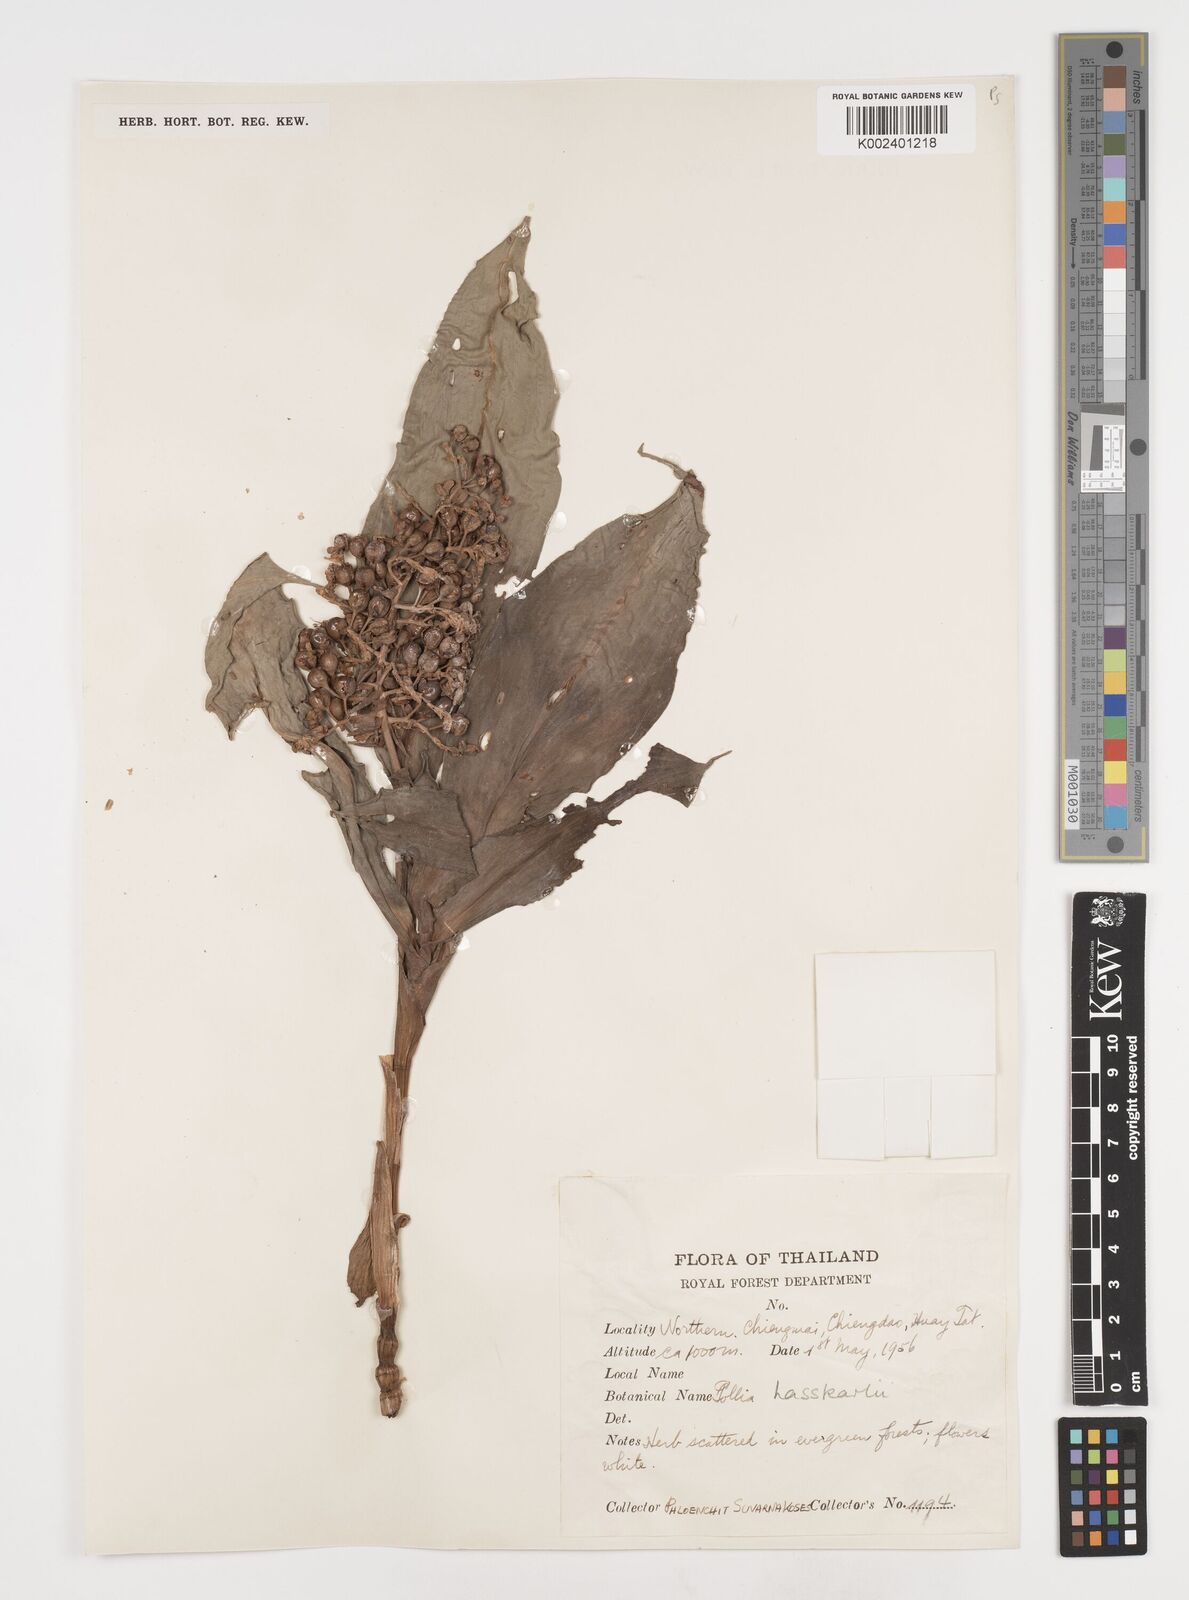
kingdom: Plantae
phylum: Tracheophyta
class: Liliopsida
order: Commelinales
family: Commelinaceae
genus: Pollia
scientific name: Pollia hasskarlii
